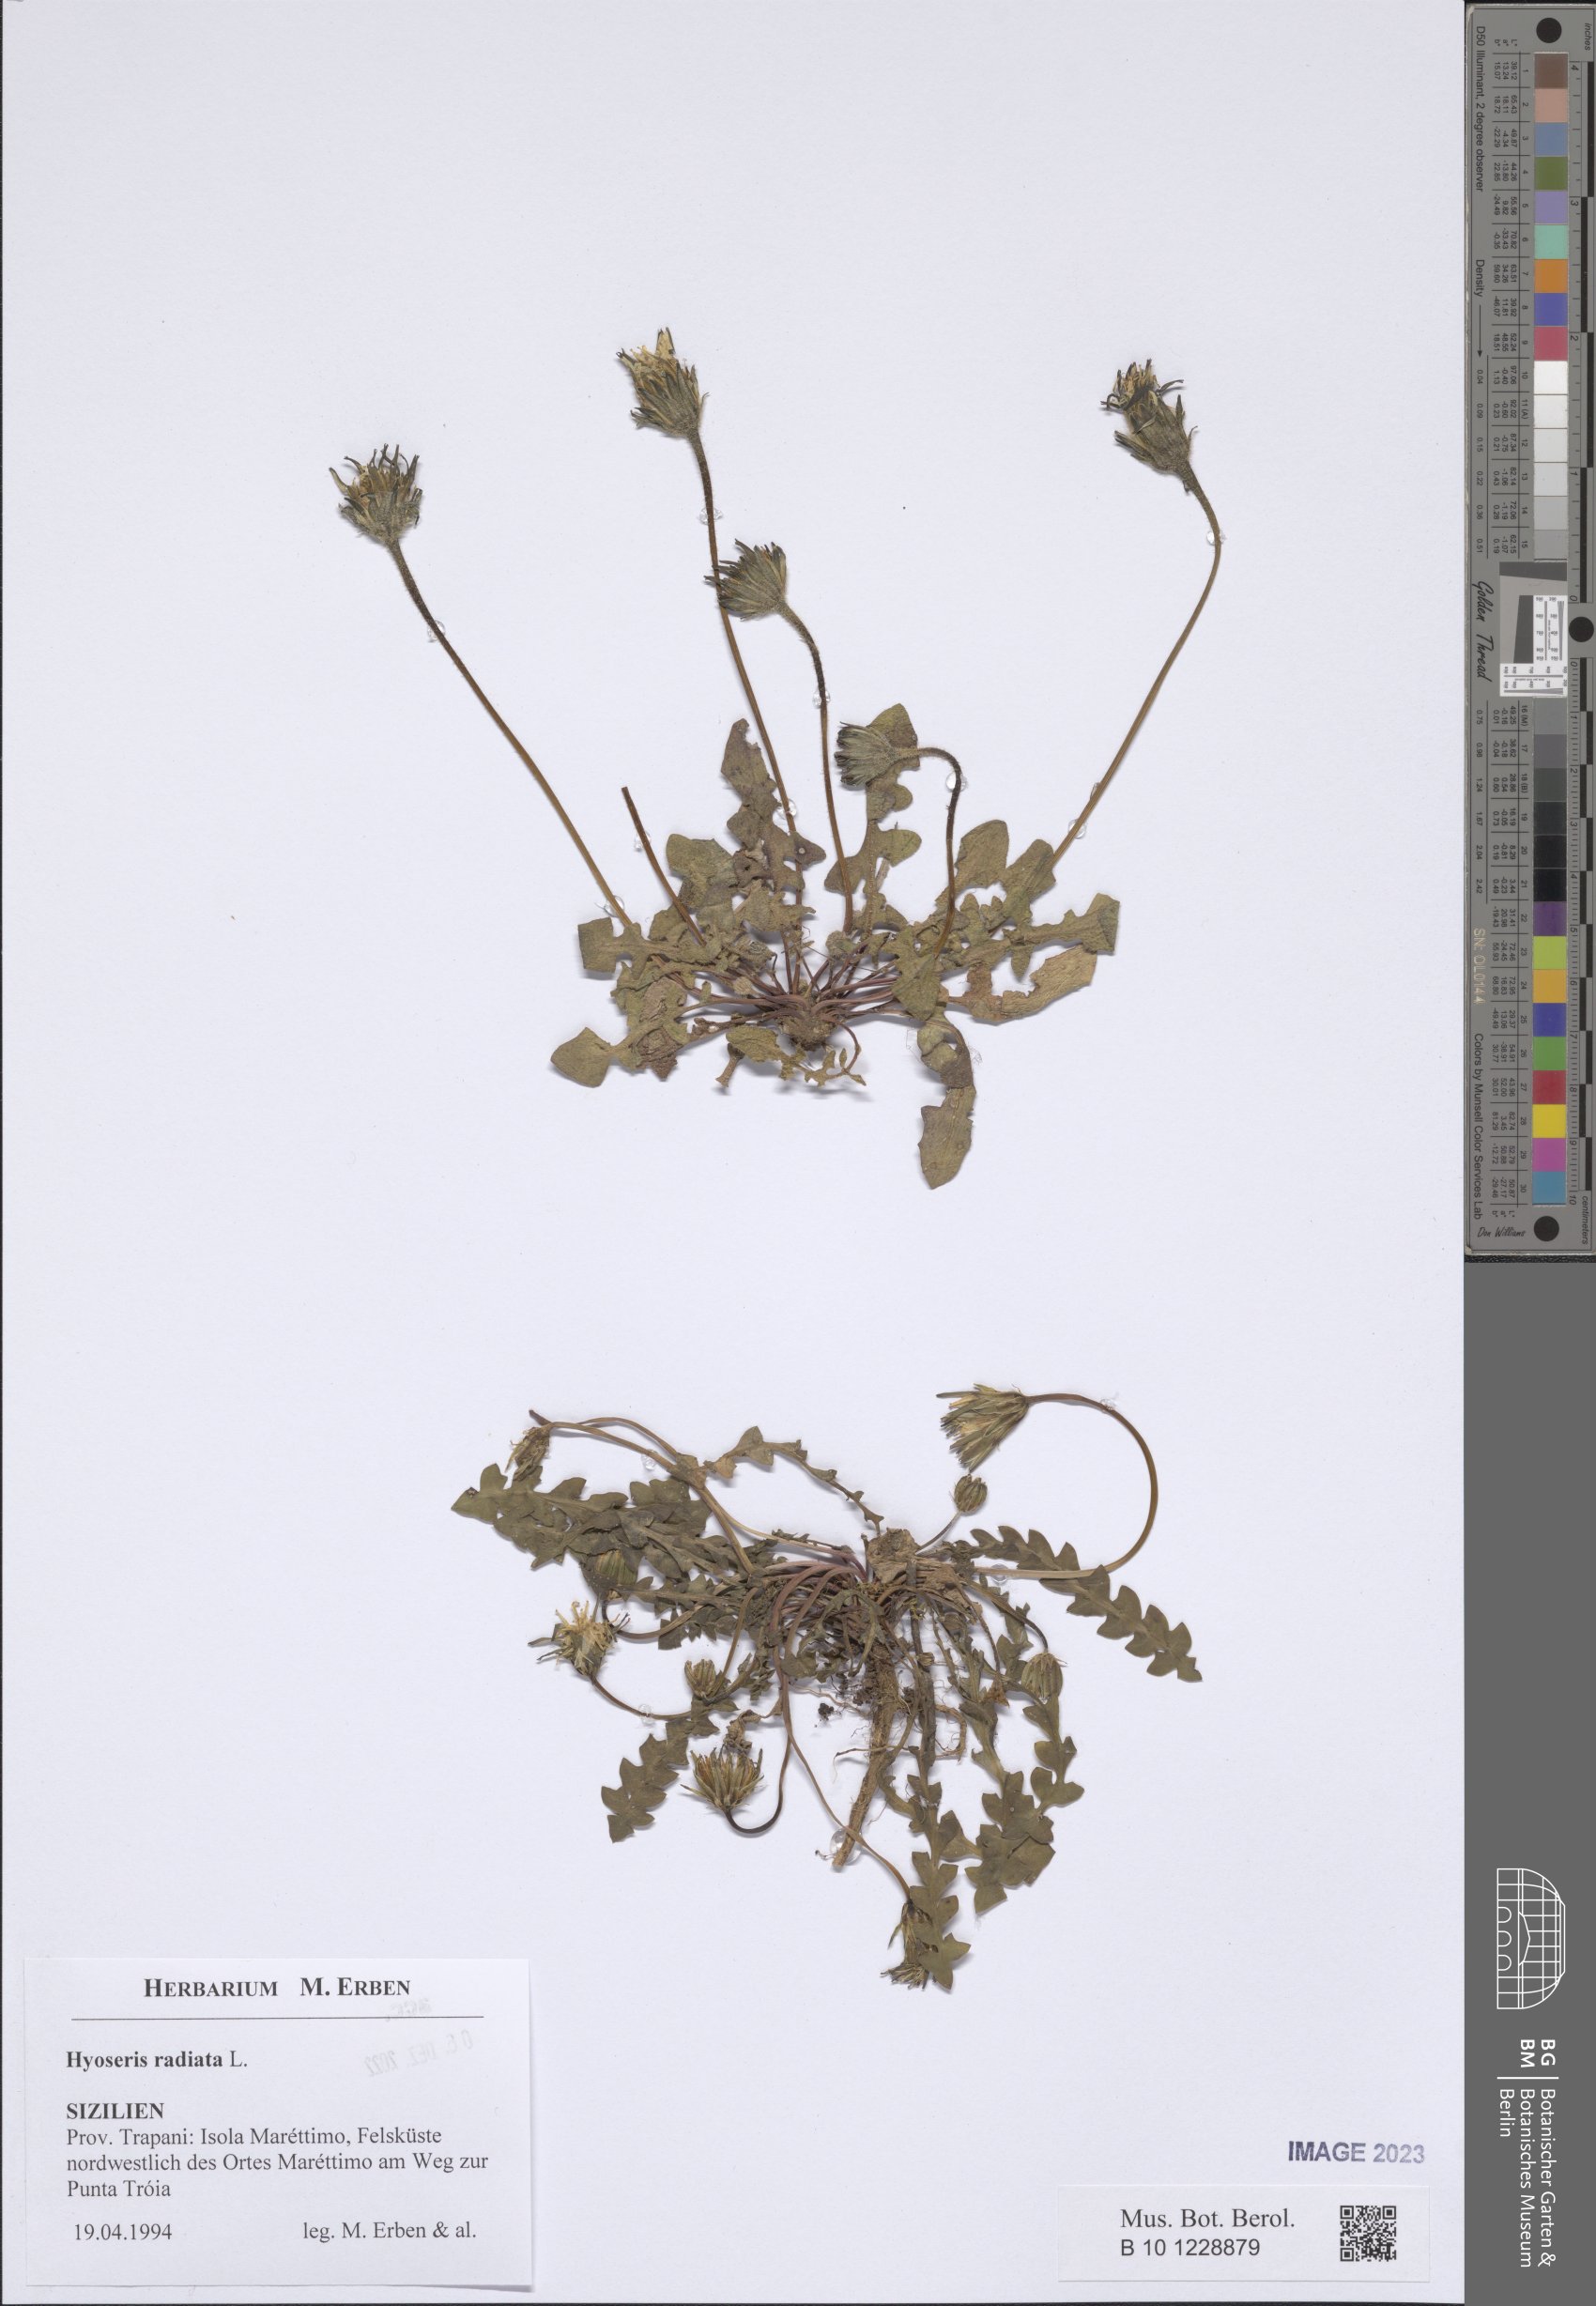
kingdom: Plantae
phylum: Tracheophyta
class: Magnoliopsida
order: Asterales
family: Asteraceae
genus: Hyoseris
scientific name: Hyoseris radiata
